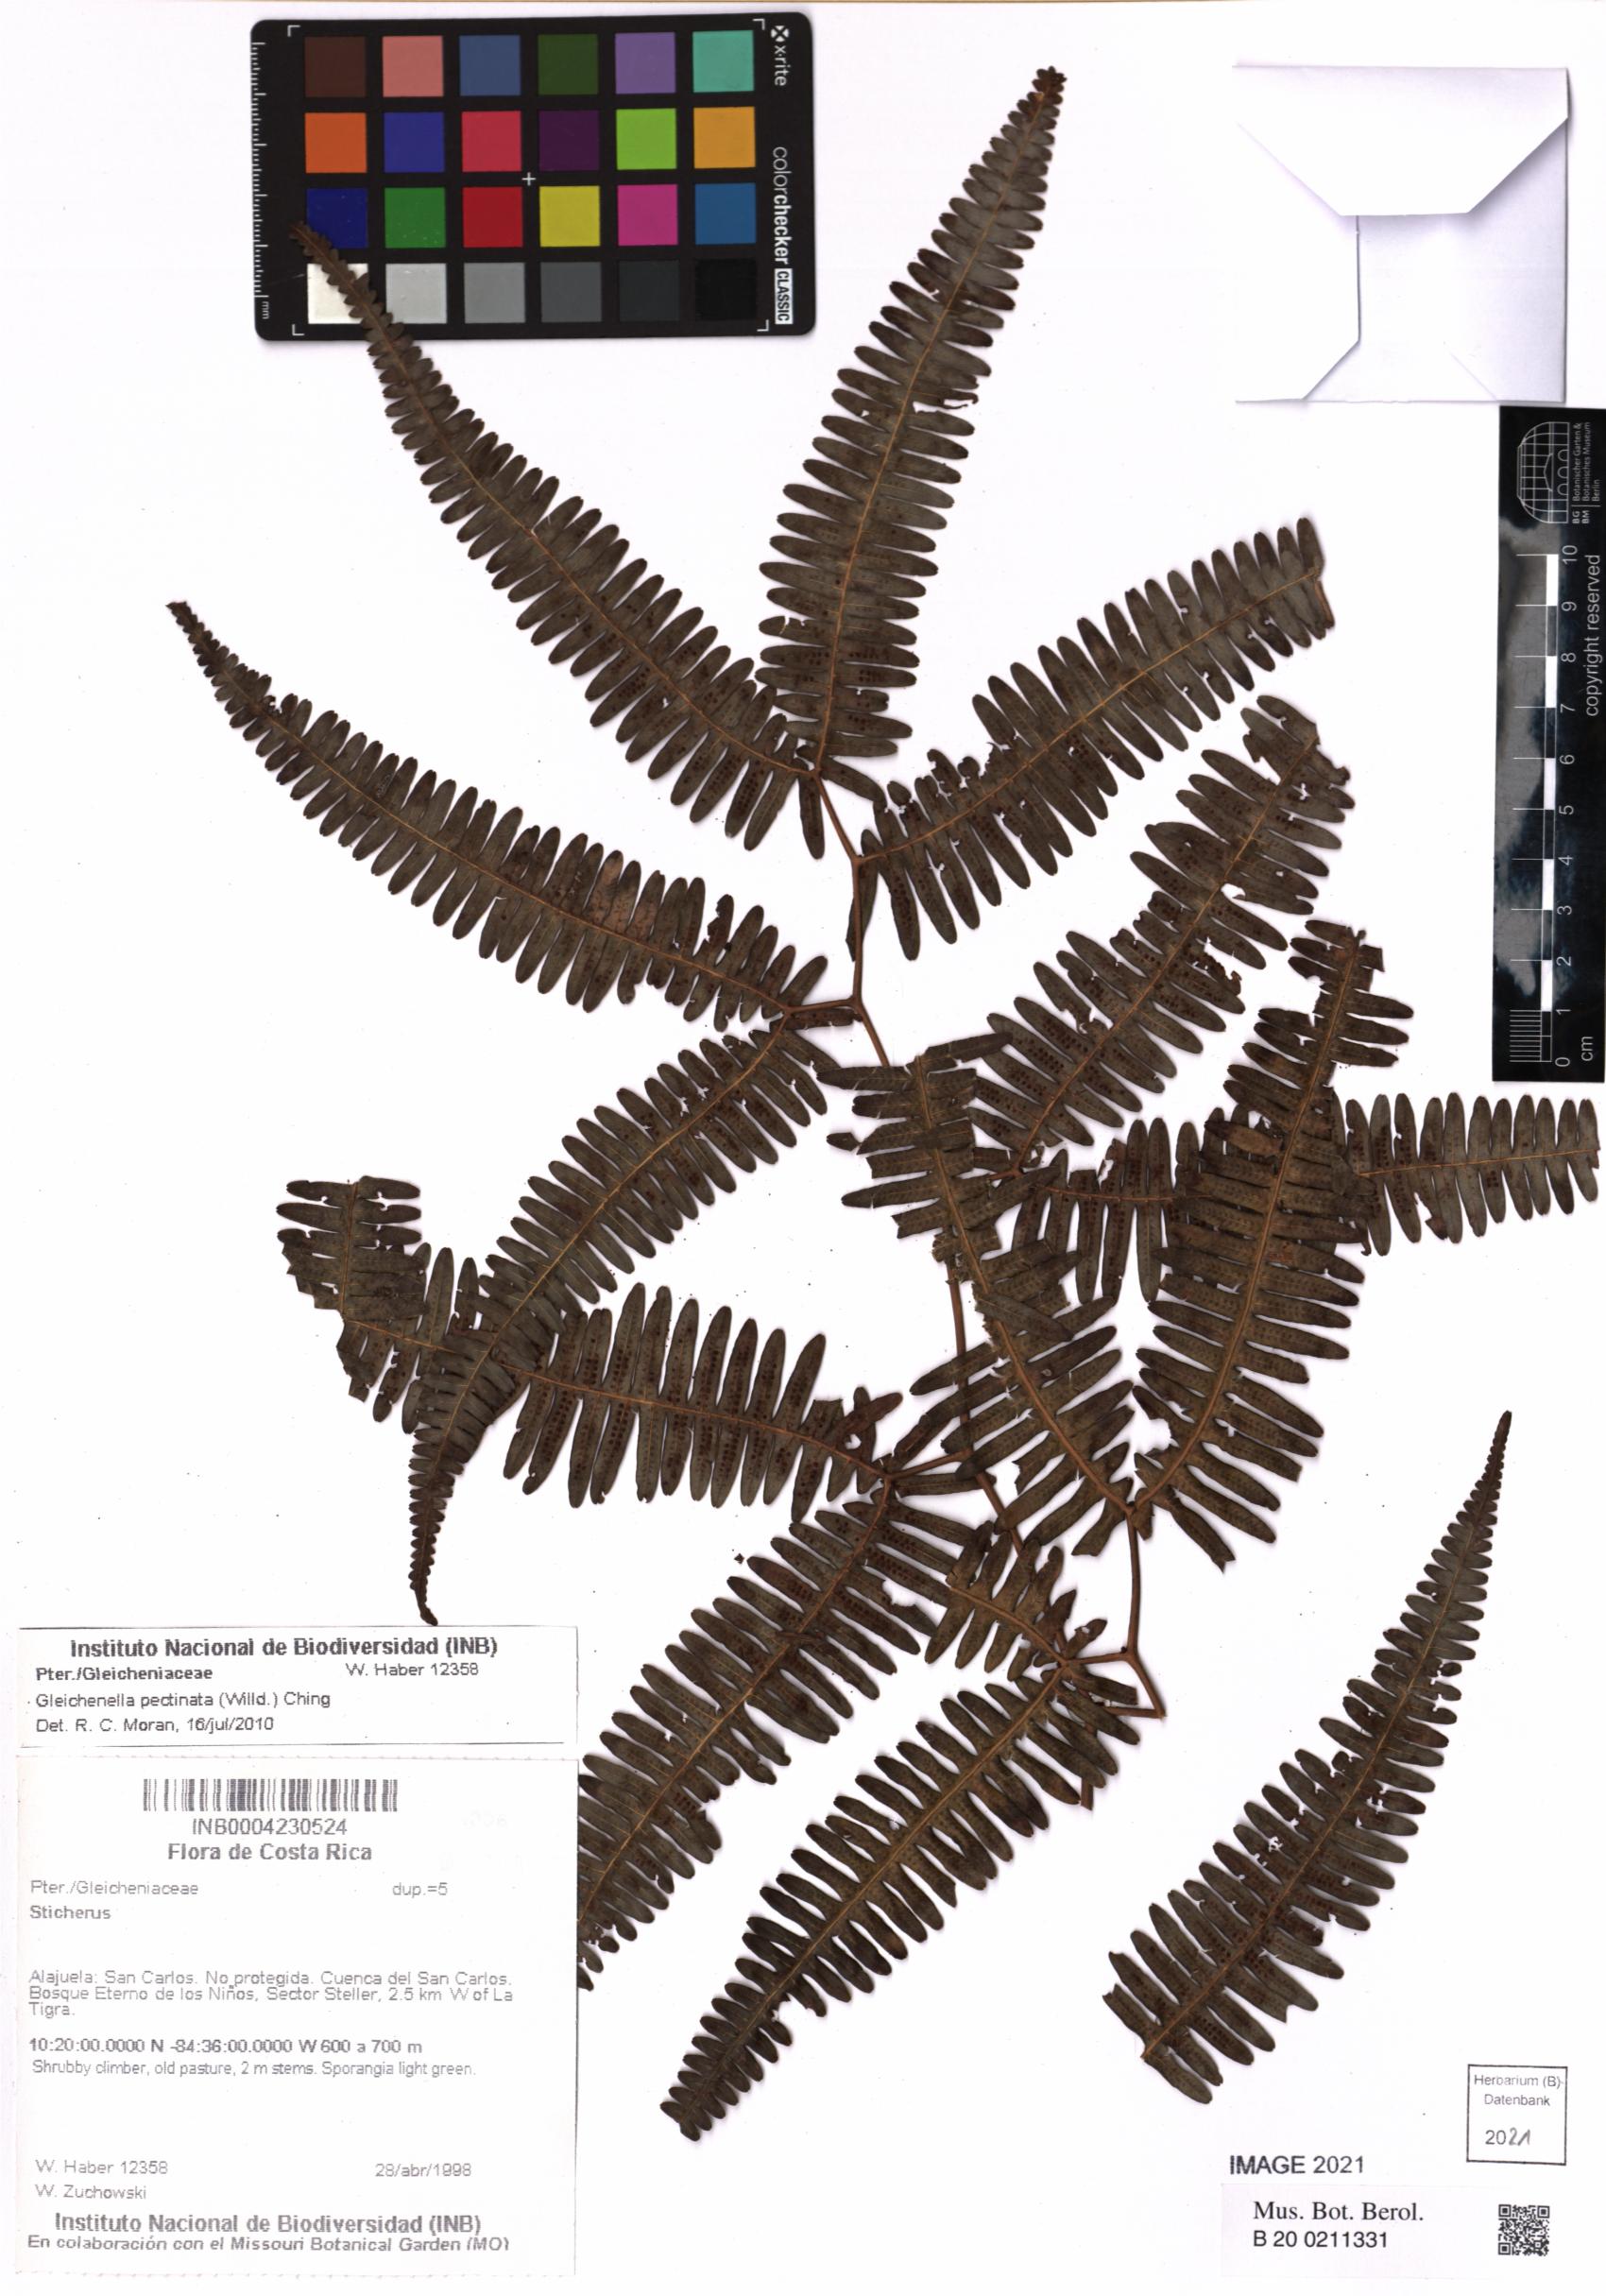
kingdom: Plantae
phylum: Tracheophyta
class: Polypodiopsida
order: Gleicheniales
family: Gleicheniaceae
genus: Gleichenella
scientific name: Gleichenella pectinata
